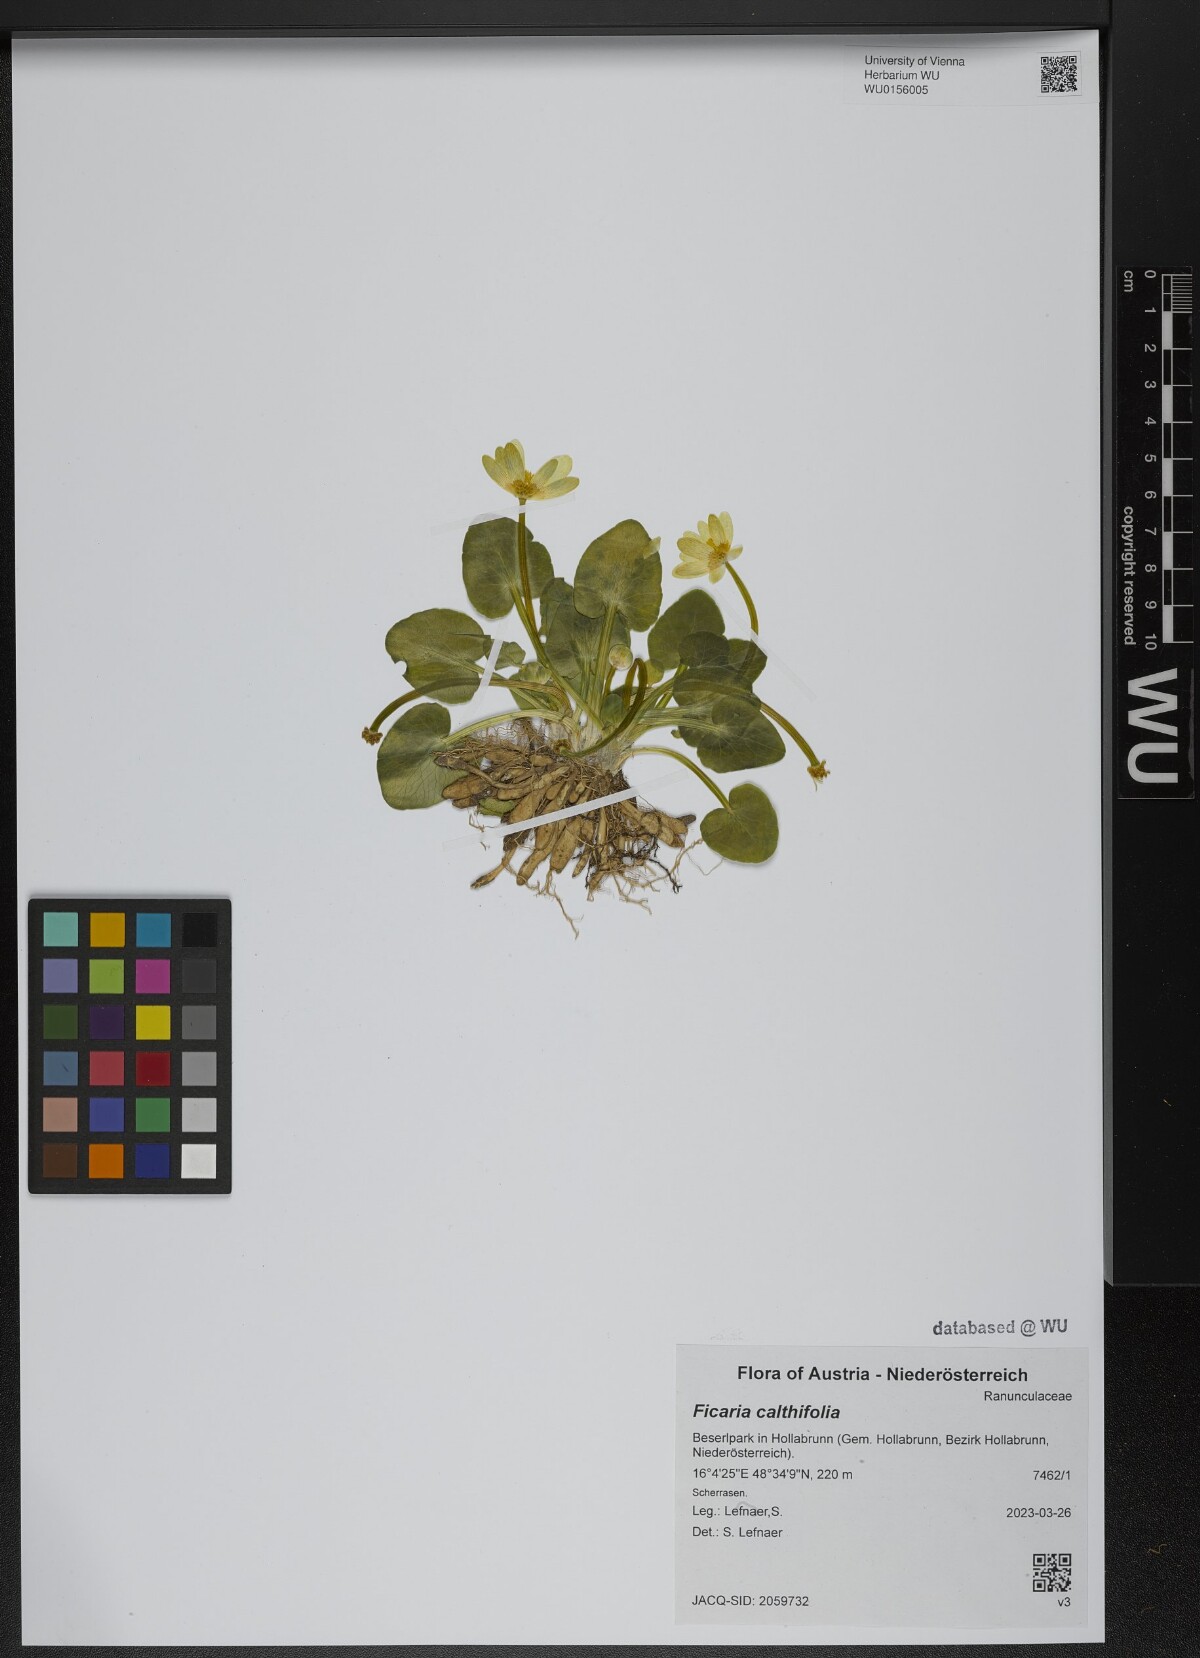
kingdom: Plantae
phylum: Tracheophyta
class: Magnoliopsida
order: Ranunculales
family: Ranunculaceae
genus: Ficaria
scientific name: Ficaria calthifolia
